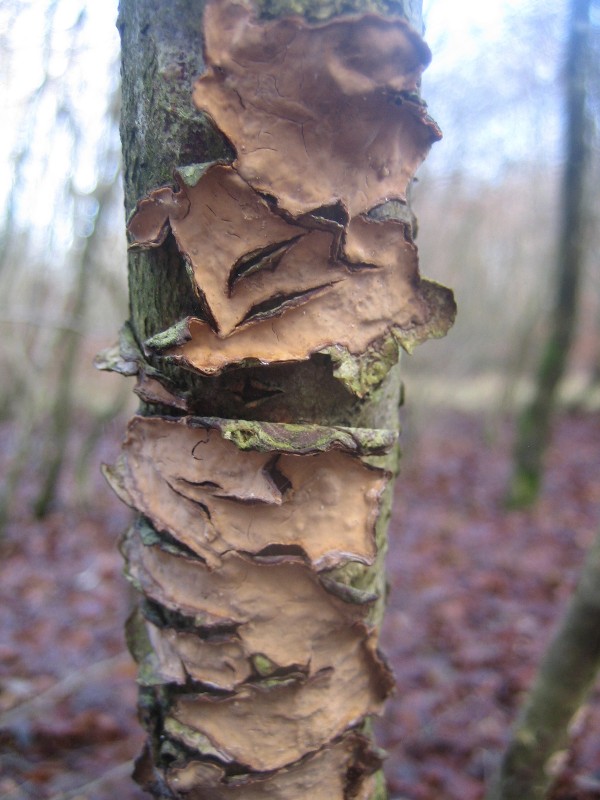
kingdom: Fungi
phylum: Basidiomycota
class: Agaricomycetes
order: Russulales
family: Stereaceae
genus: Stereum
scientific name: Stereum rugosum
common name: rynket lædersvamp
